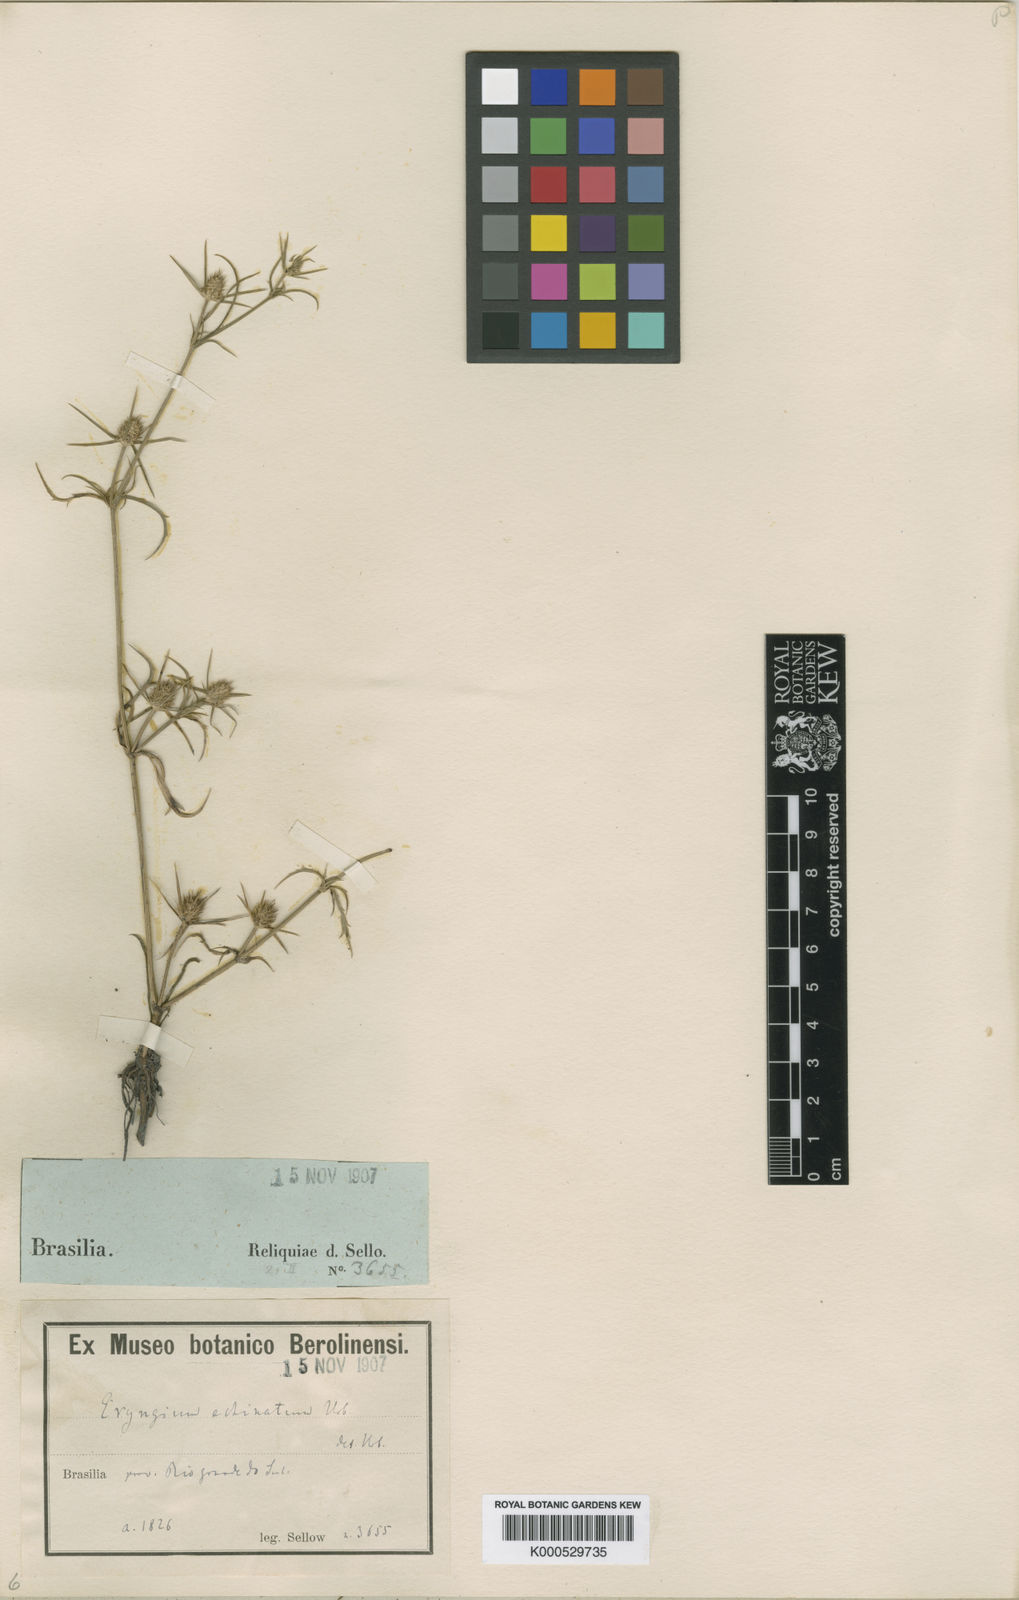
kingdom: Plantae
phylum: Tracheophyta
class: Magnoliopsida
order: Apiales
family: Apiaceae
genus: Eryngium
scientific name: Eryngium echinatum
